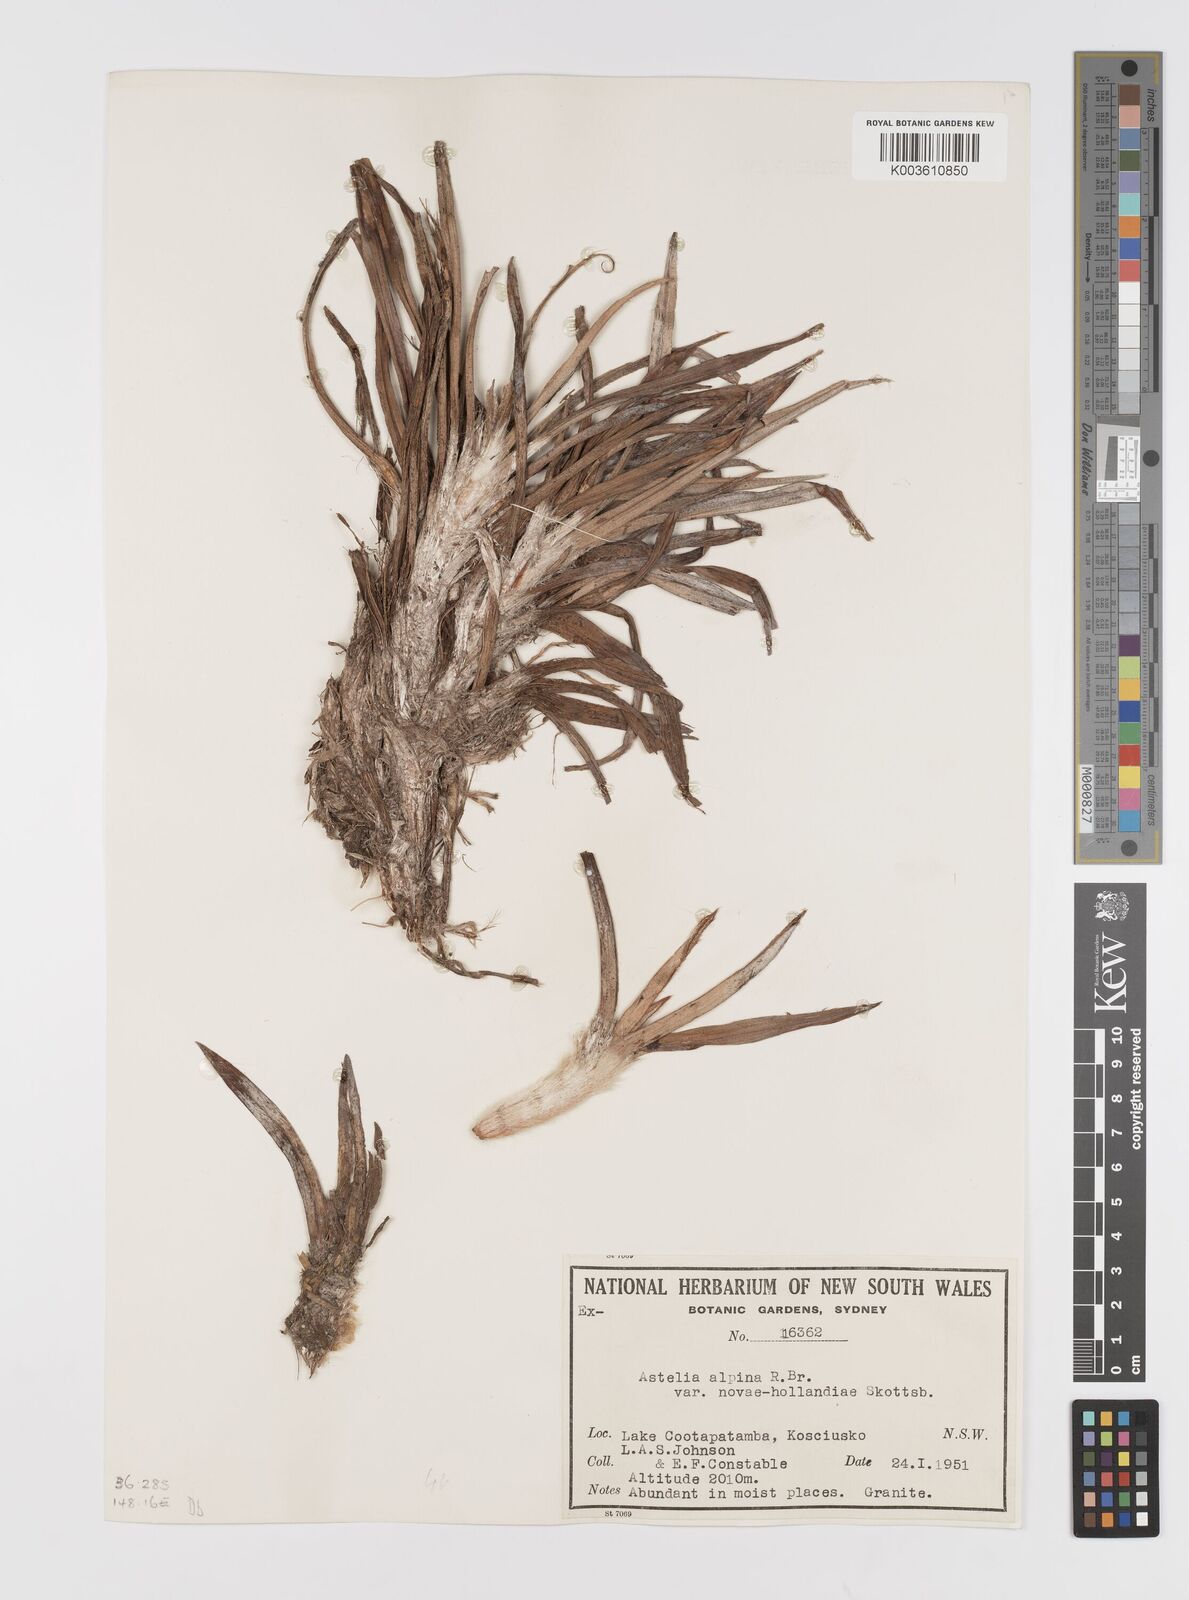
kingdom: Plantae
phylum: Tracheophyta
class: Liliopsida
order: Asparagales
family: Asteliaceae
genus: Astelia
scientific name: Astelia alpina
